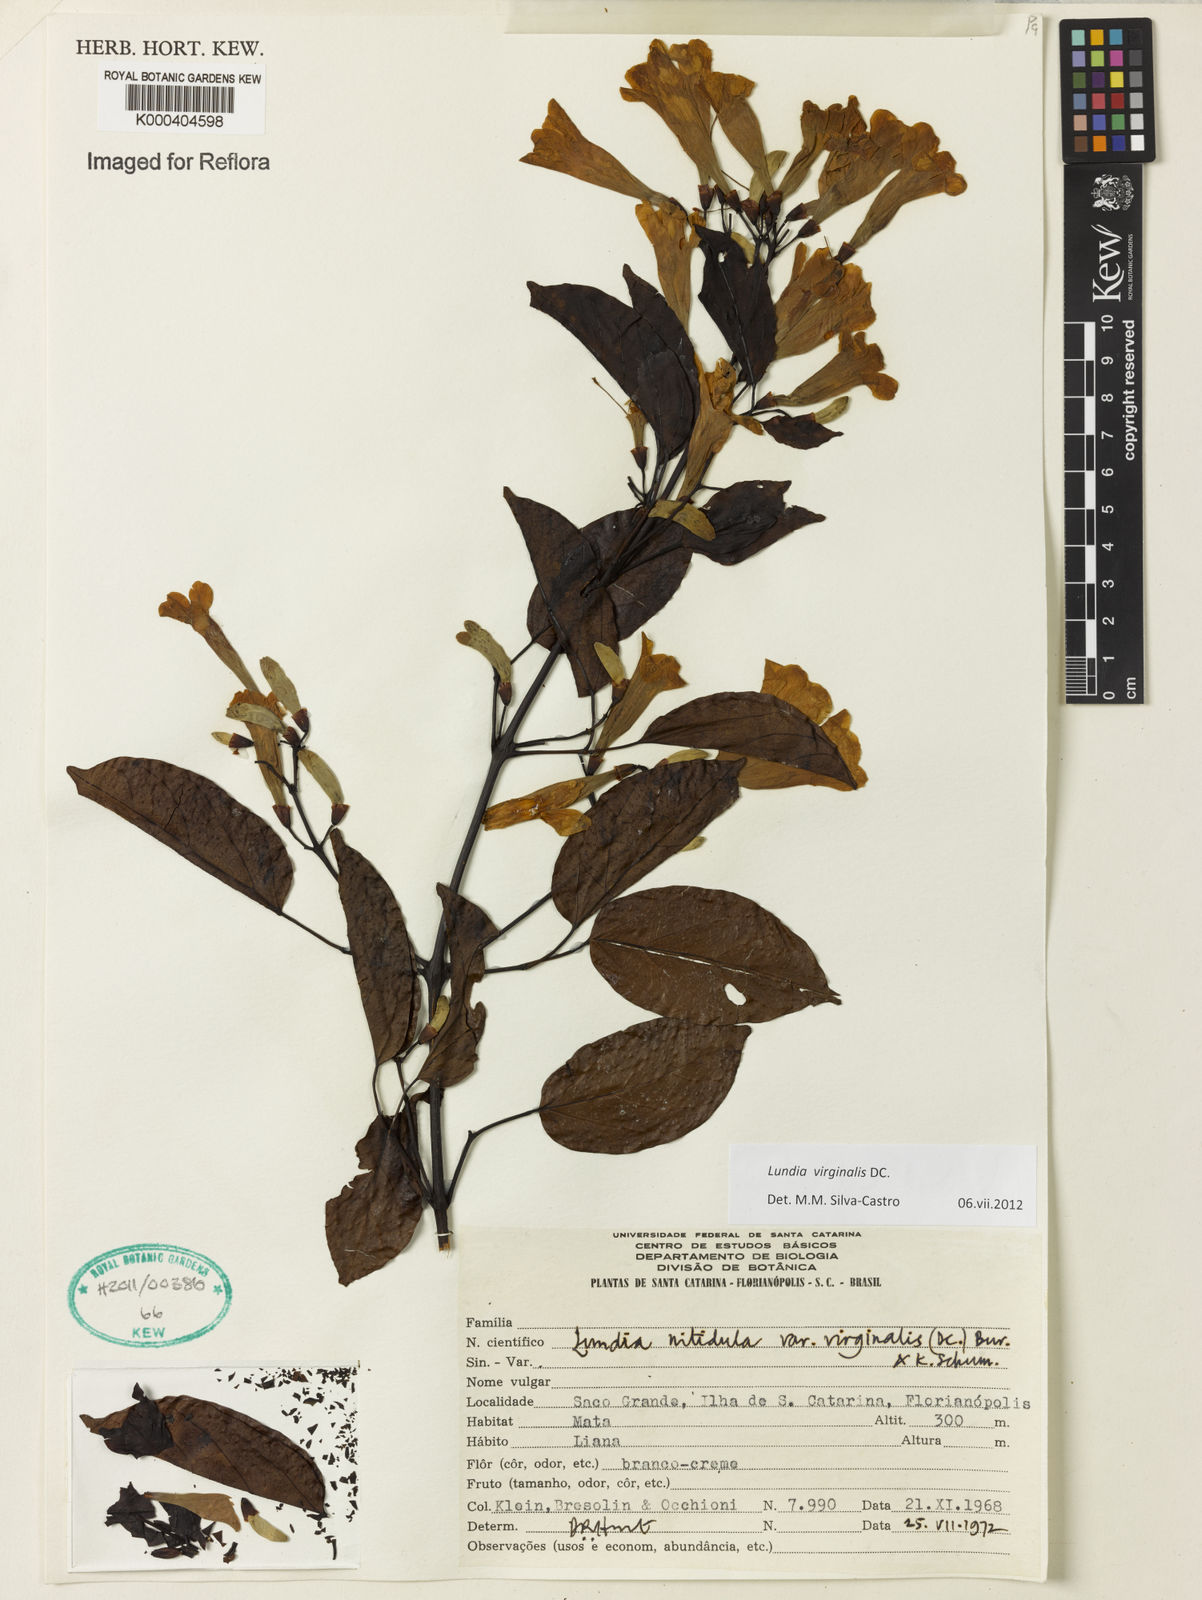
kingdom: Plantae
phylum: Tracheophyta
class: Magnoliopsida
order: Lamiales
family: Bignoniaceae
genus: Lundia
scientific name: Lundia virginalis
